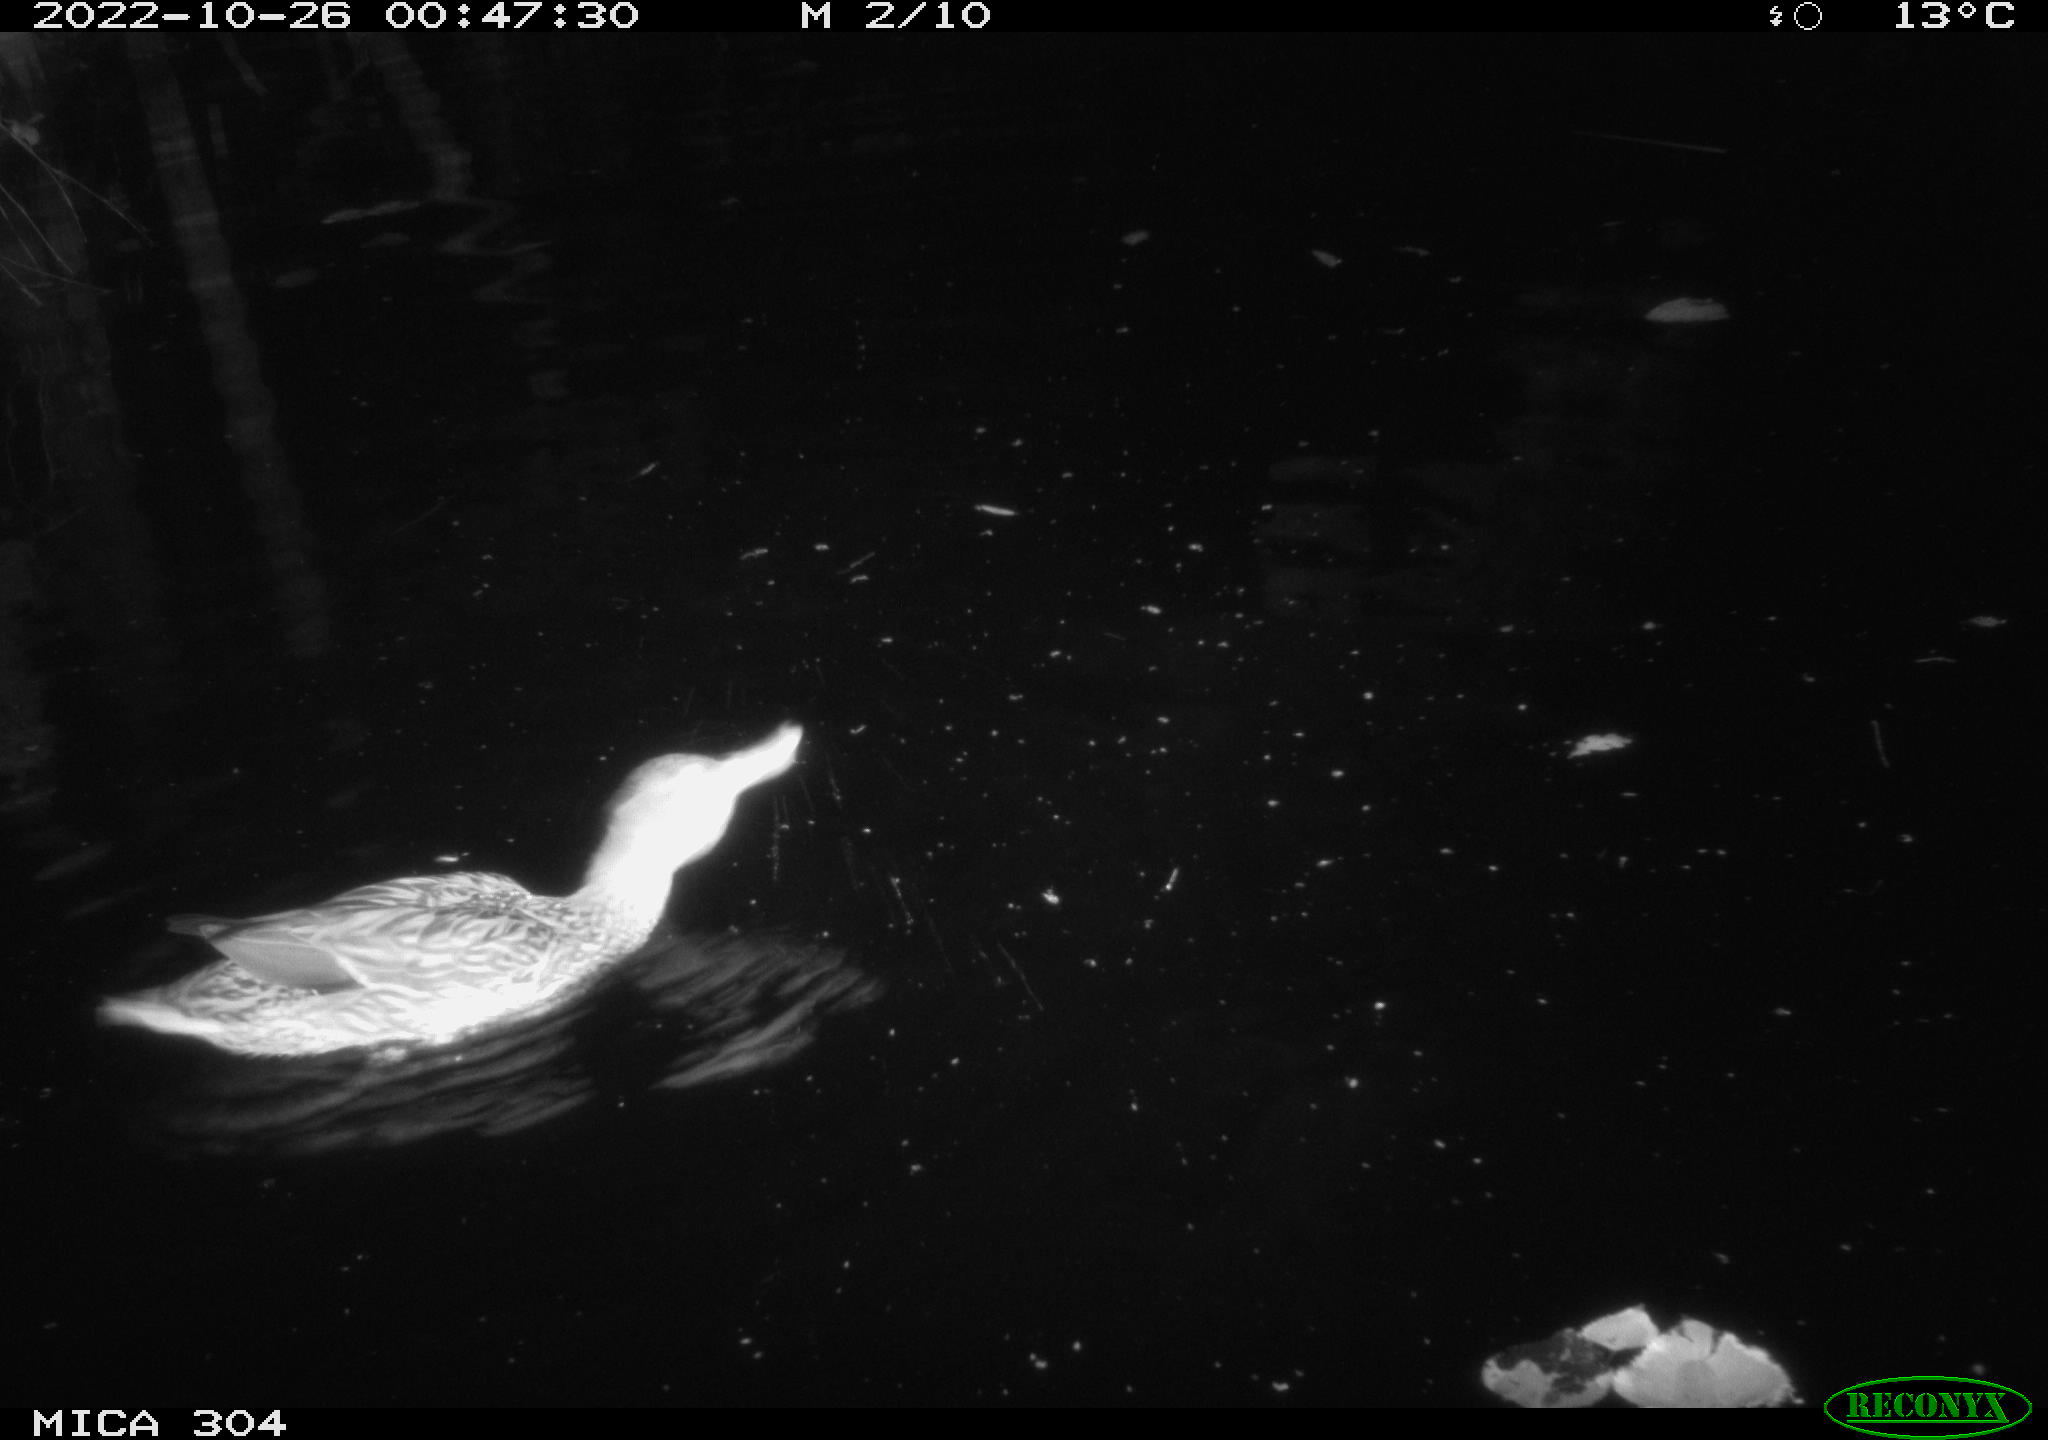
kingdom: Animalia
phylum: Chordata
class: Aves
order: Anseriformes
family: Anatidae
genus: Anas
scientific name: Anas
